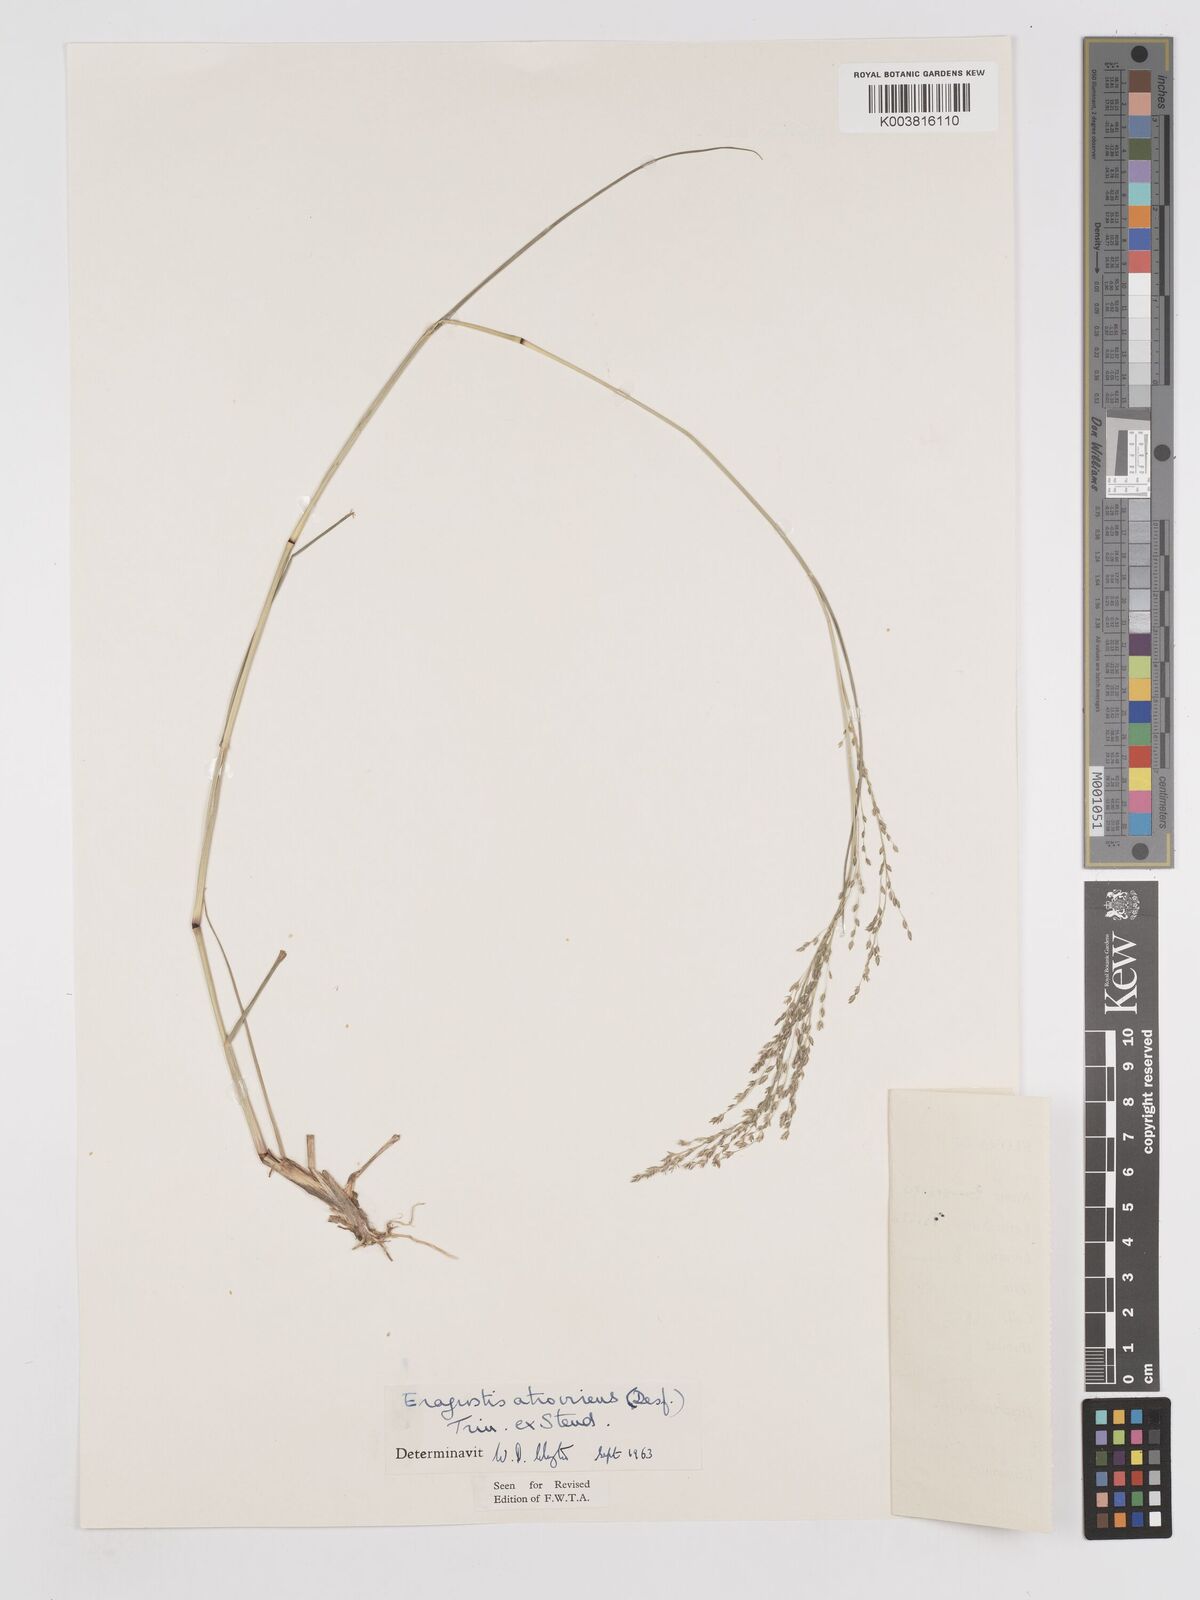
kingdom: Plantae
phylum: Tracheophyta
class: Liliopsida
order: Poales
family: Poaceae
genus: Eragrostis
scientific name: Eragrostis atrovirens
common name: Thalia lovegrass
